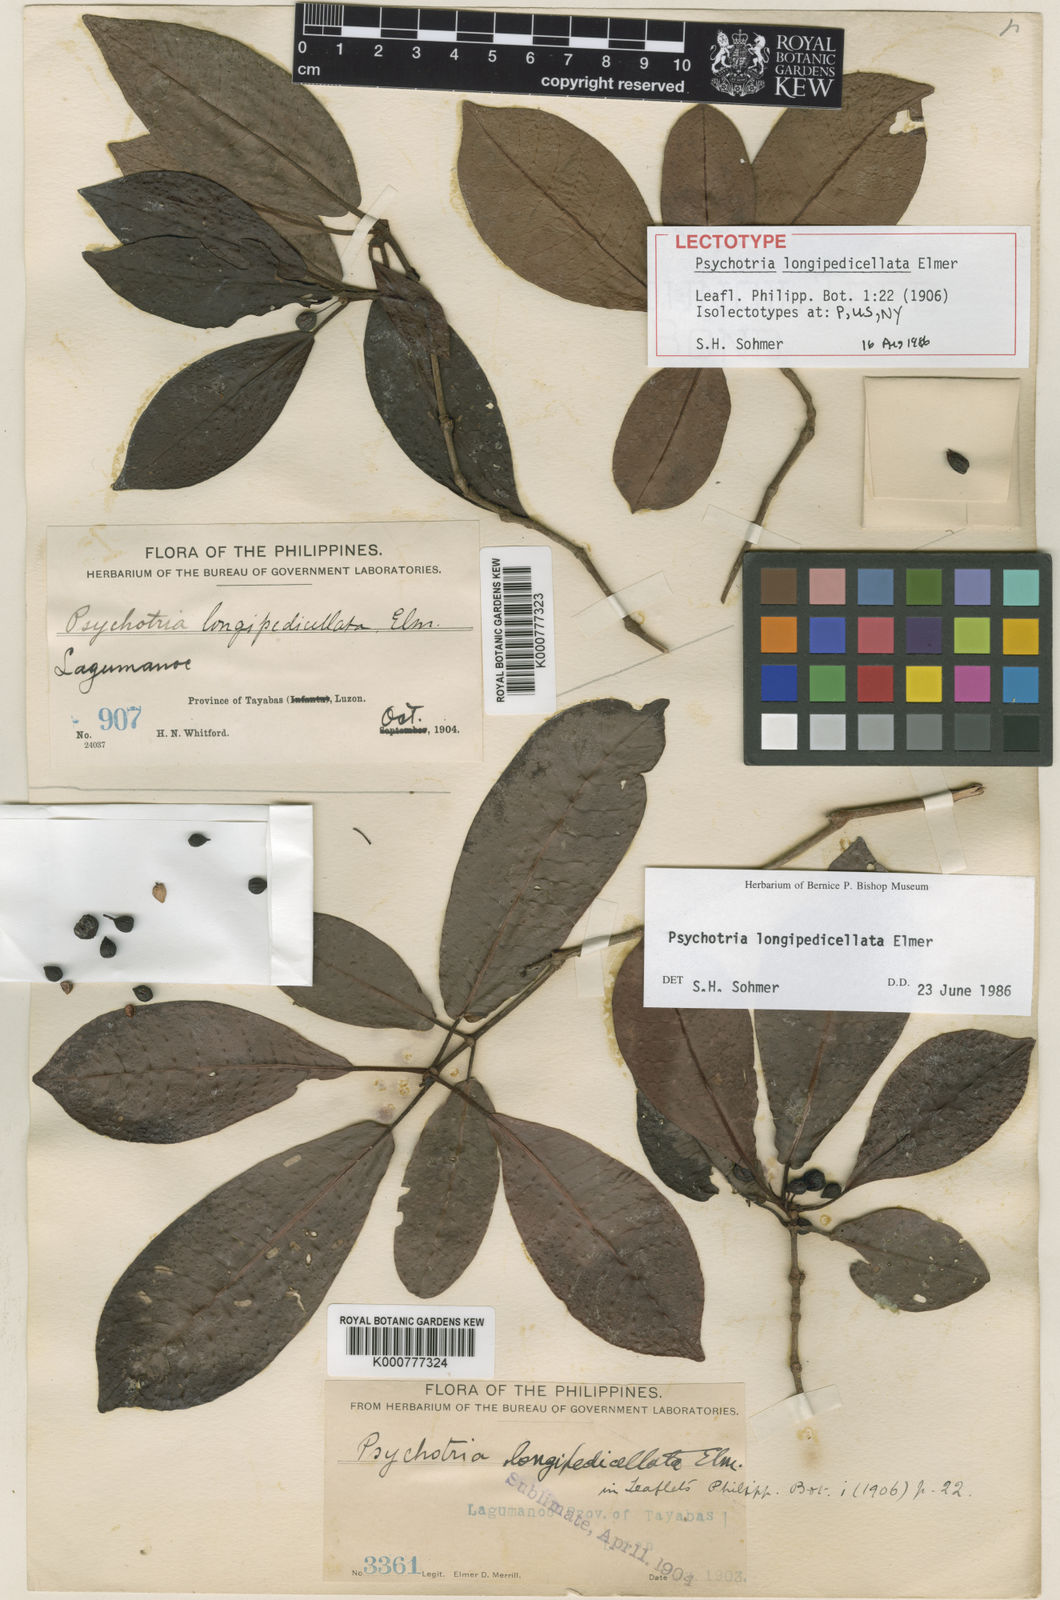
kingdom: Plantae
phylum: Tracheophyta
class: Magnoliopsida
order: Gentianales
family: Rubiaceae
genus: Psychotria
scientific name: Psychotria longipedicellata
